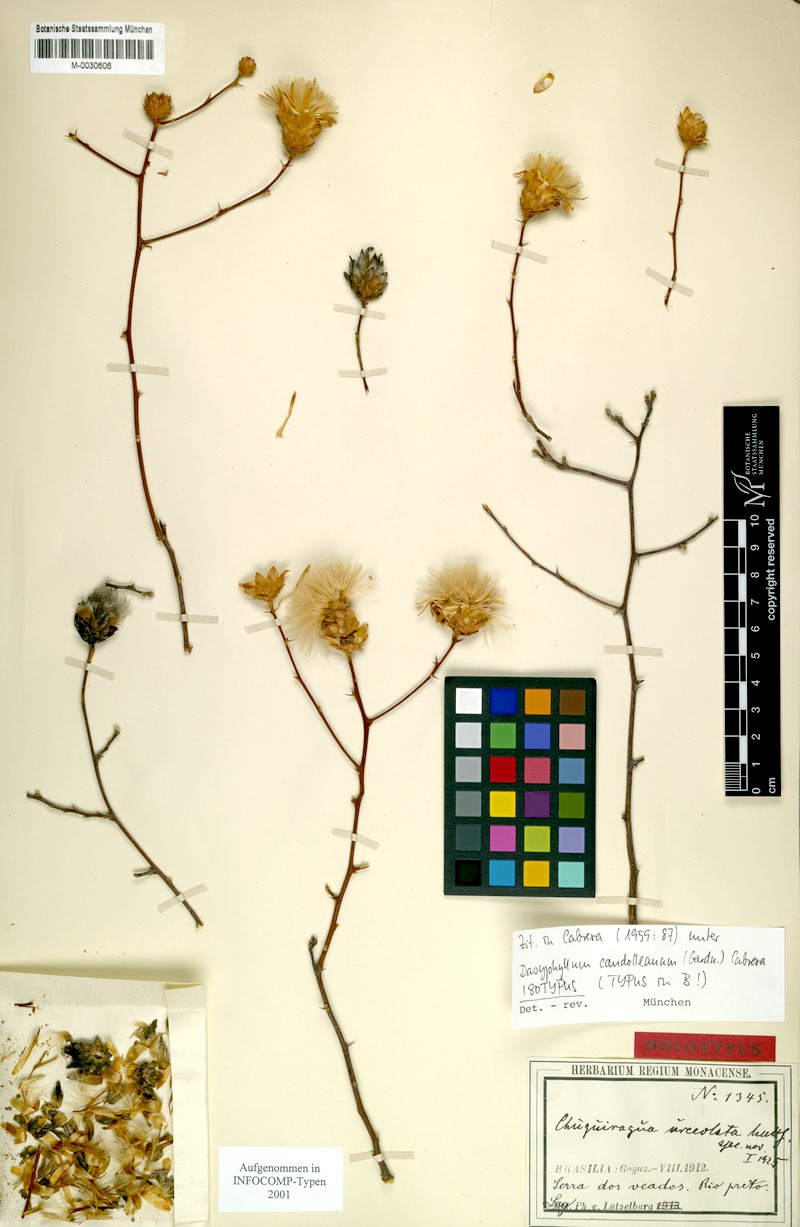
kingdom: Plantae
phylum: Tracheophyta
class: Magnoliopsida
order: Asterales
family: Asteraceae
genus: Dasyphyllum
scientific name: Dasyphyllum candolleanum
